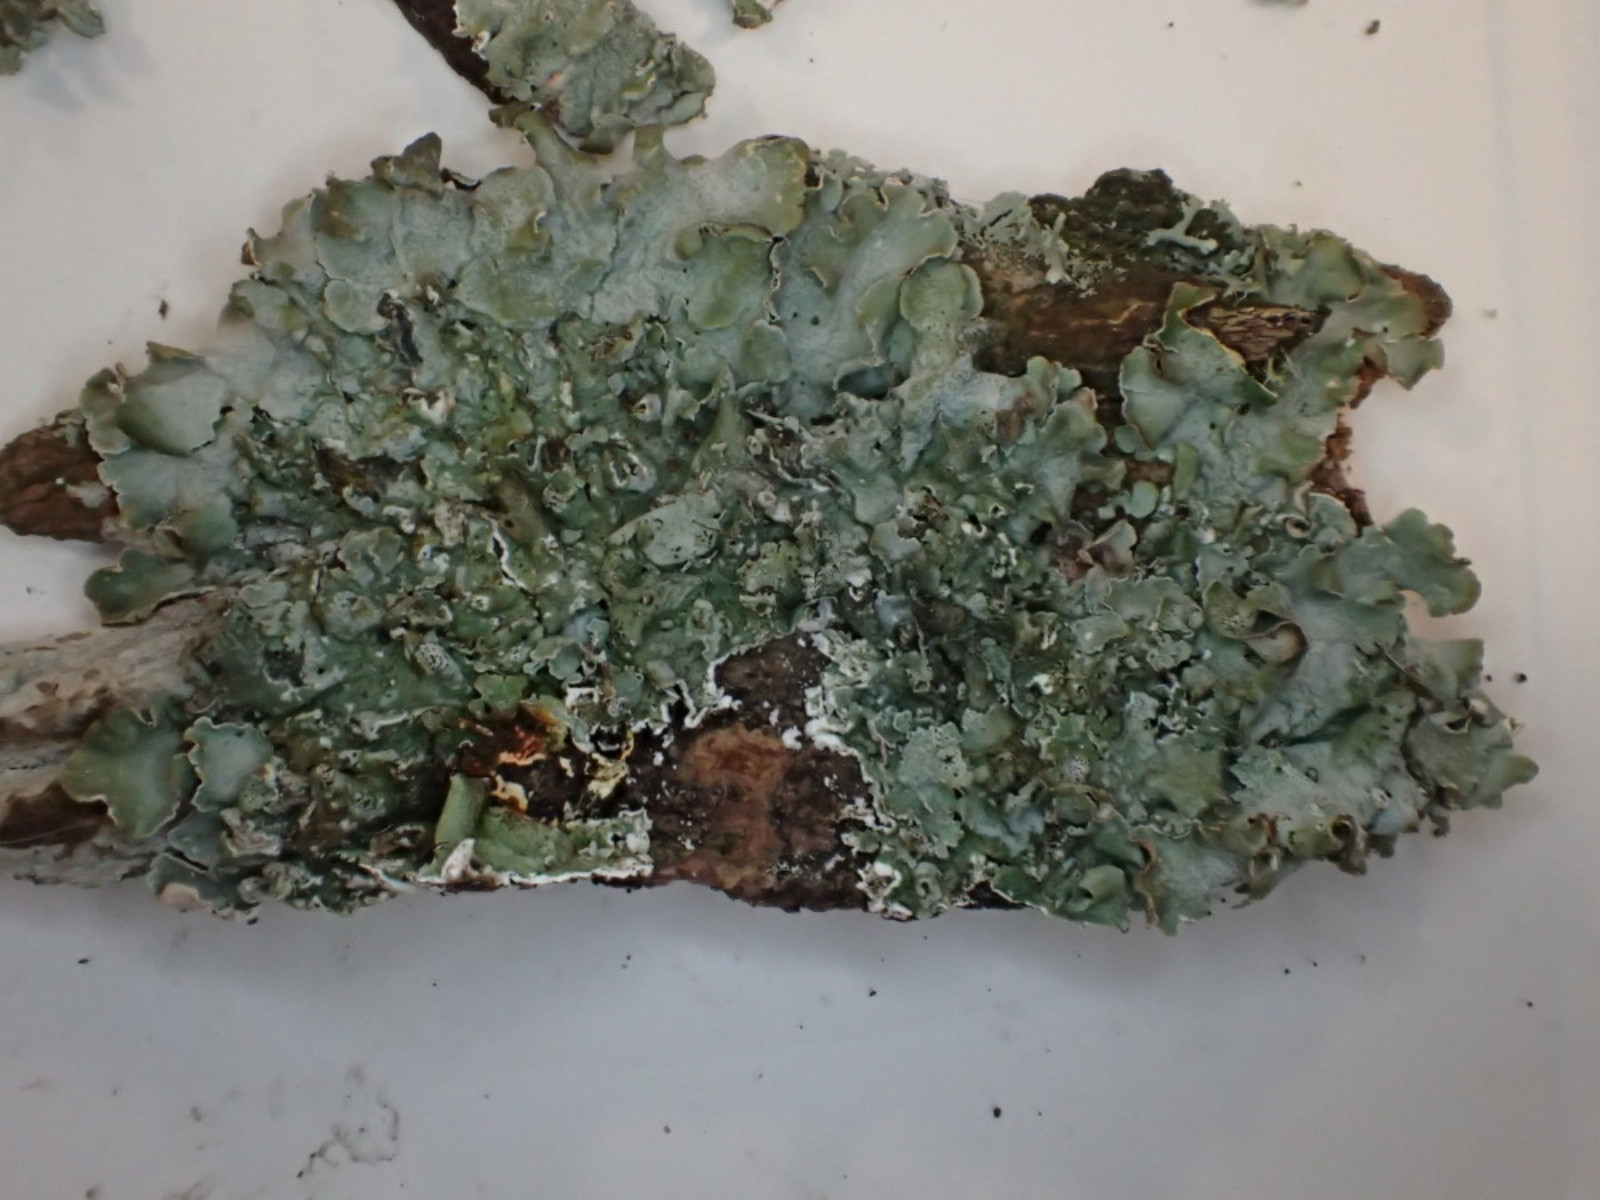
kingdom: Fungi
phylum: Ascomycota
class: Lecanoromycetes
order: Lecanorales
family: Parmeliaceae
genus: Pleurosticta
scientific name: Pleurosticta acetabulum
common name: stor skållav
